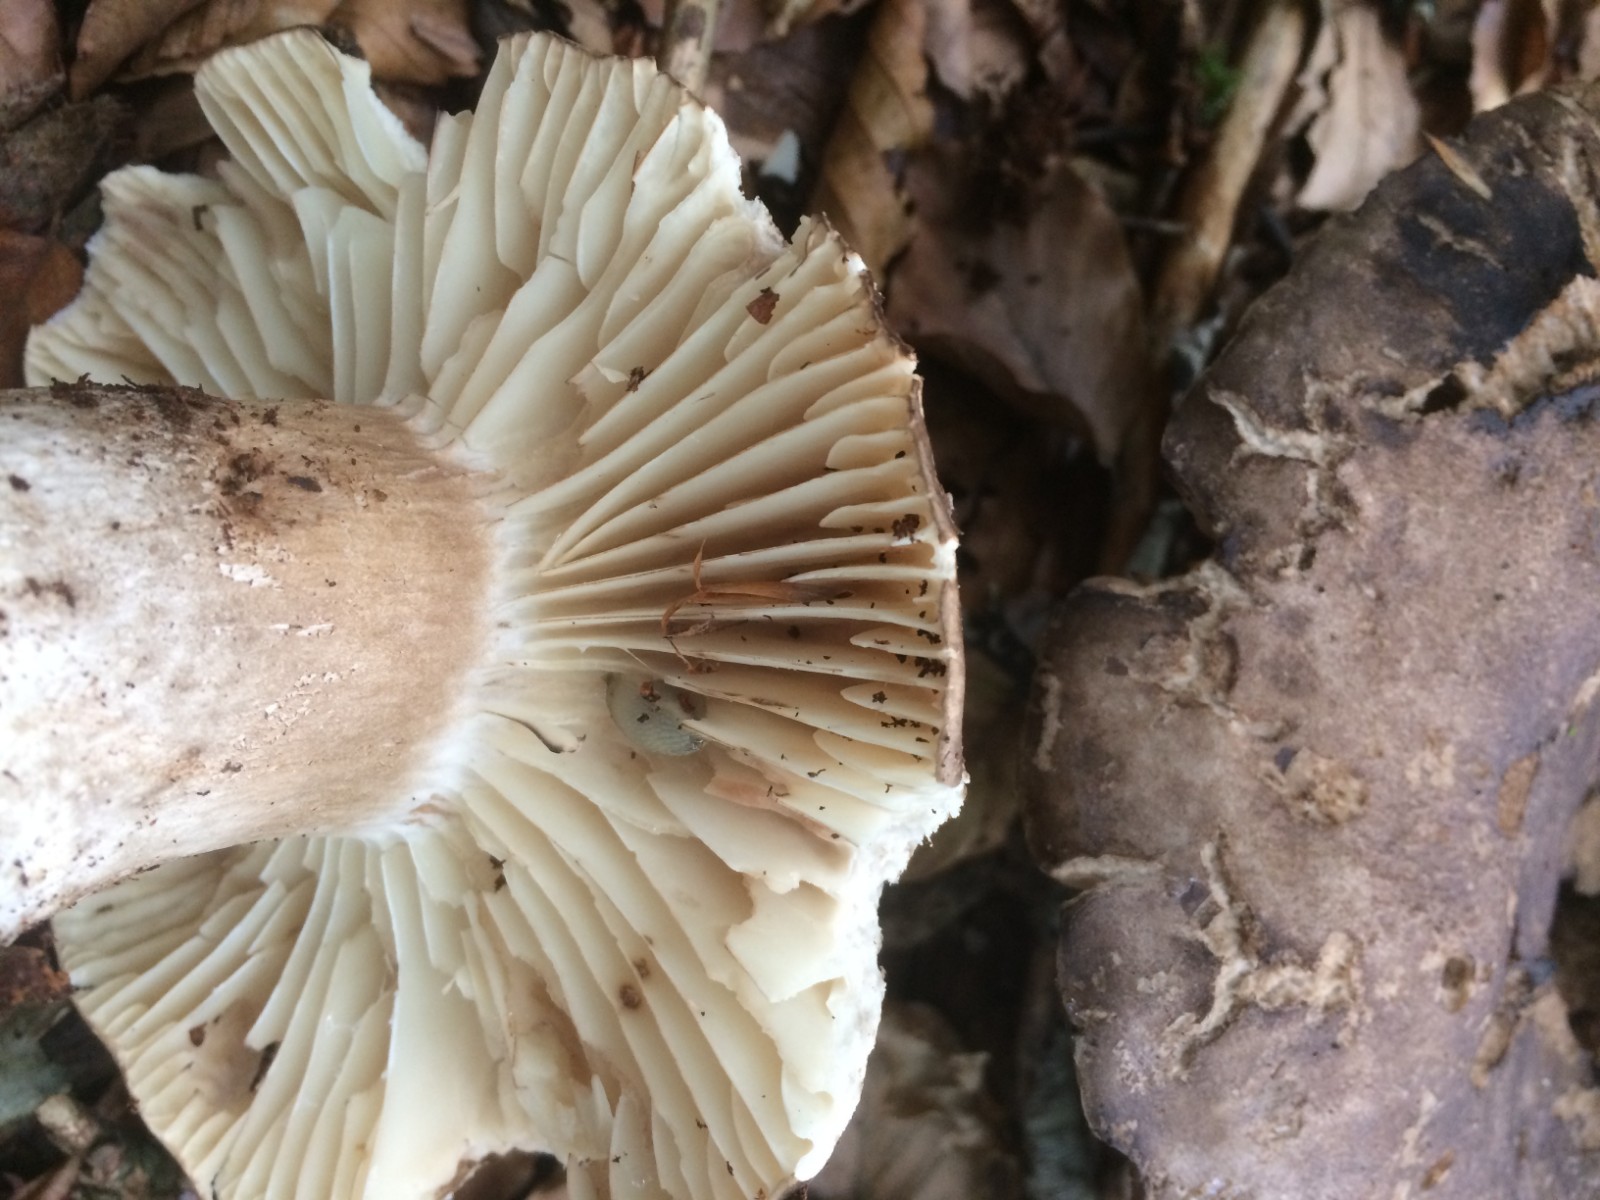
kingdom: Fungi
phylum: Basidiomycota
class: Agaricomycetes
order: Russulales
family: Russulaceae
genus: Russula
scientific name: Russula adusta
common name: sværtende skørhat
